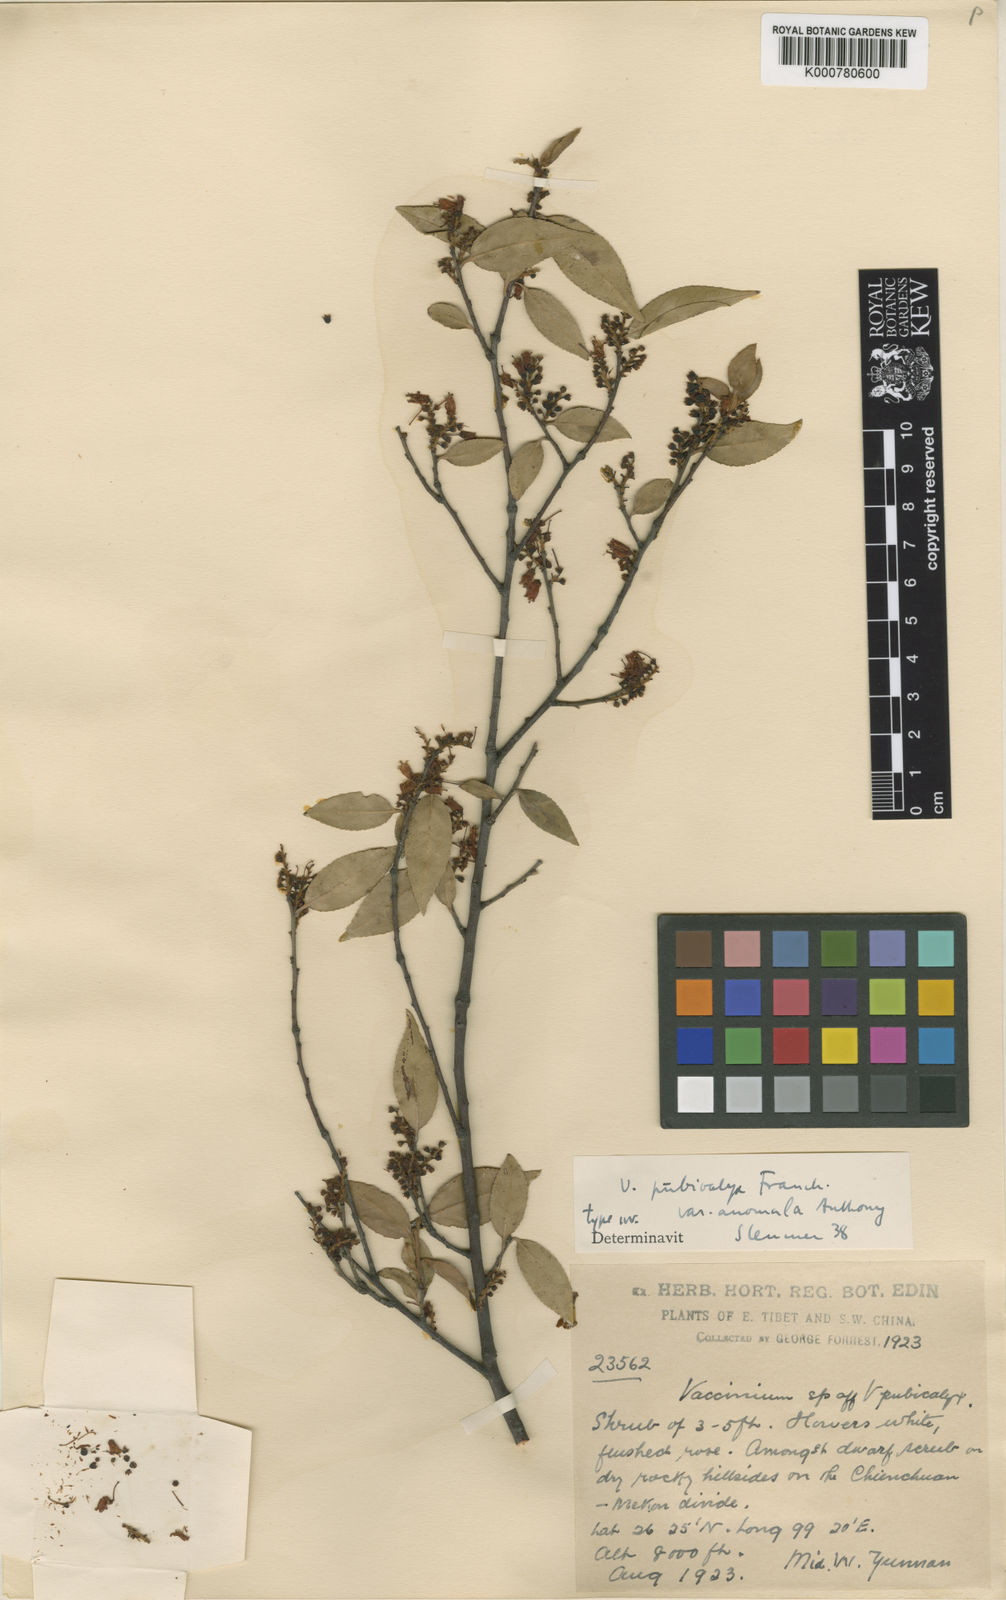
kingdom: Plantae
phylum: Tracheophyta
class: Magnoliopsida
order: Ericales
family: Ericaceae
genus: Vaccinium
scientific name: Vaccinium pubicalyx
